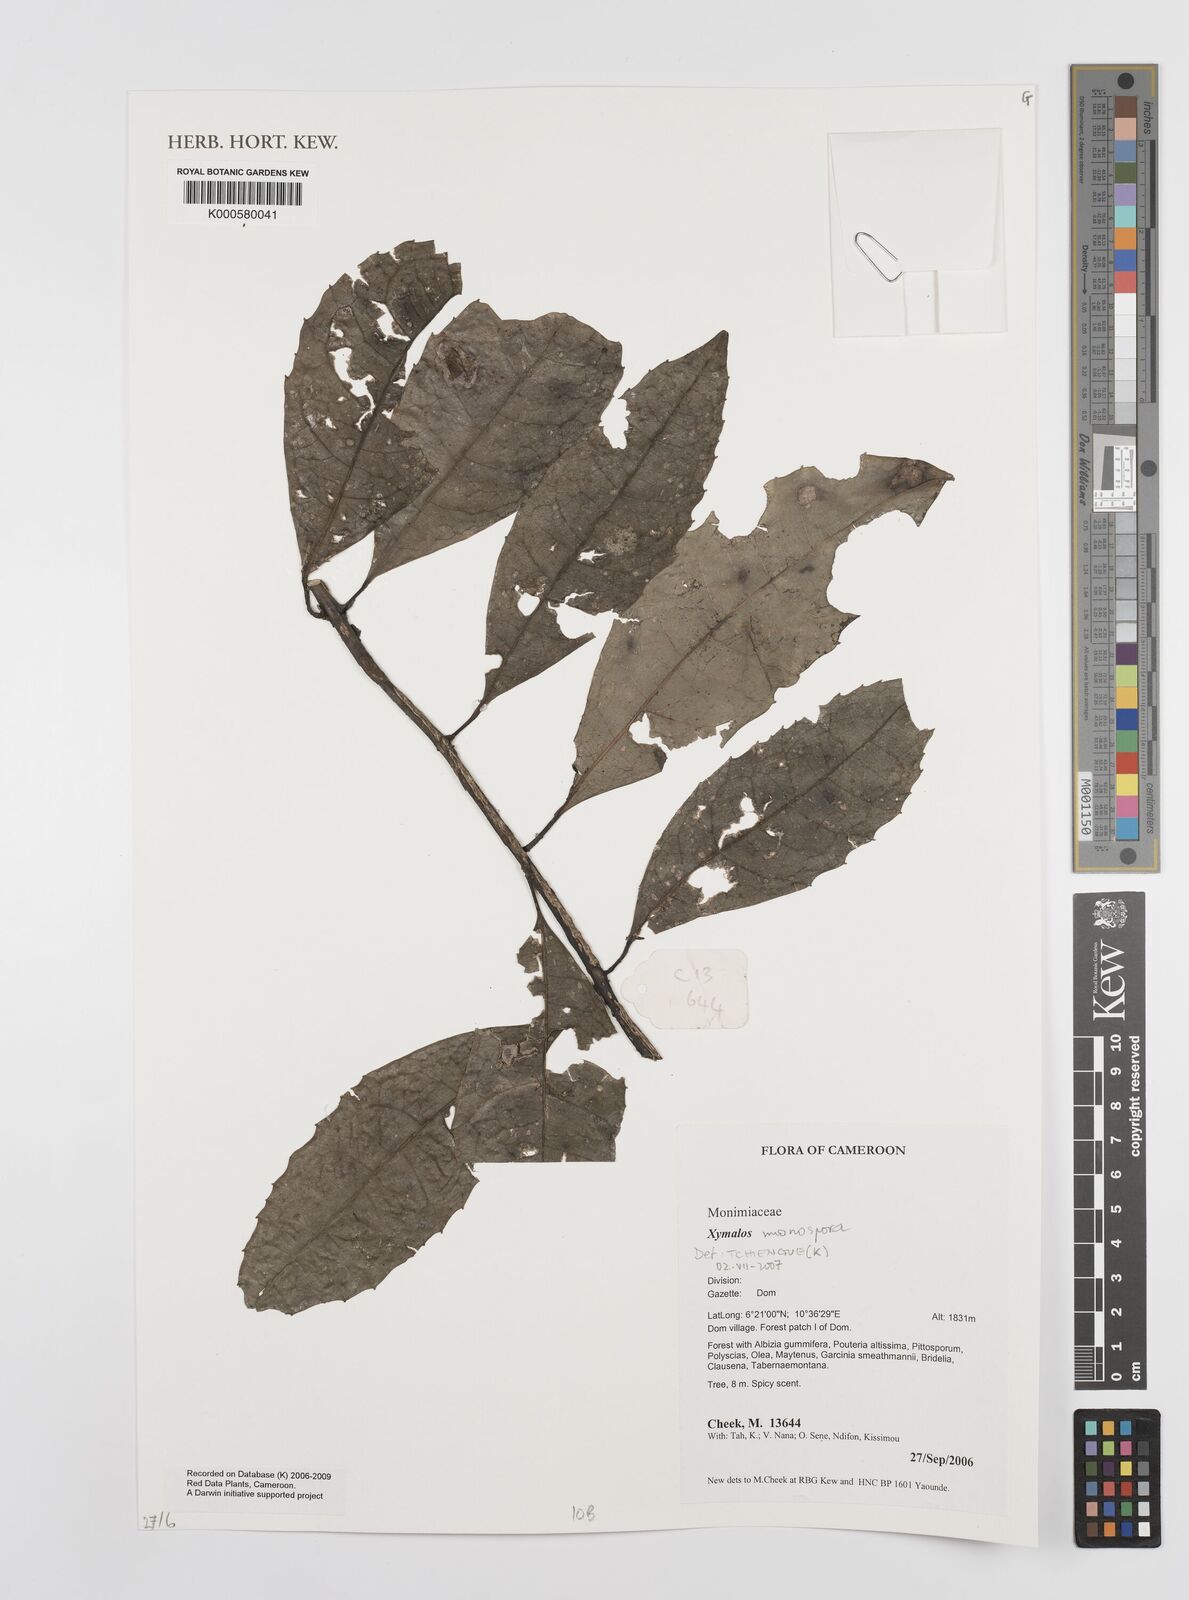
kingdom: Plantae
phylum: Tracheophyta
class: Magnoliopsida
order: Laurales
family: Monimiaceae
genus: Xymalos
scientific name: Xymalos
